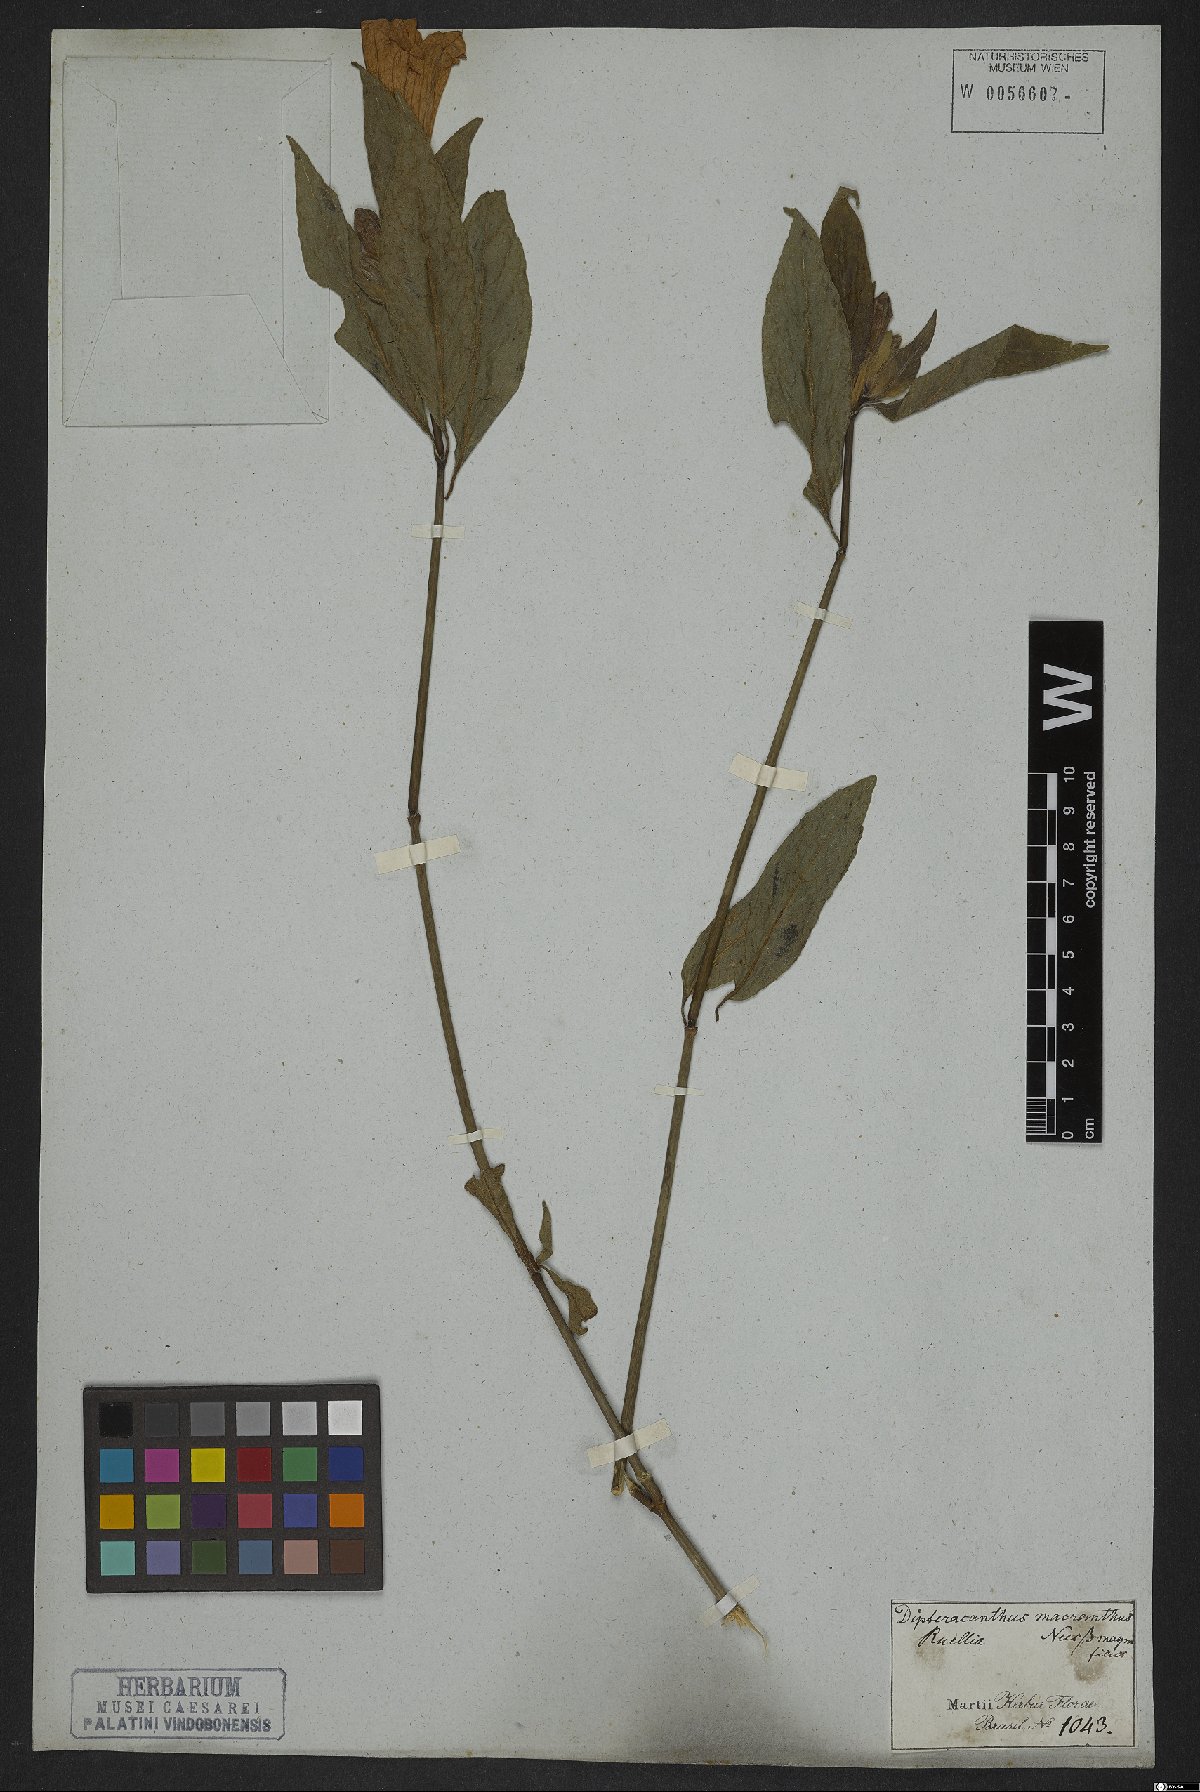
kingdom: Plantae
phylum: Tracheophyta
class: Magnoliopsida
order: Lamiales
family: Acanthaceae
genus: Ruellia
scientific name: Ruellia macrantha
